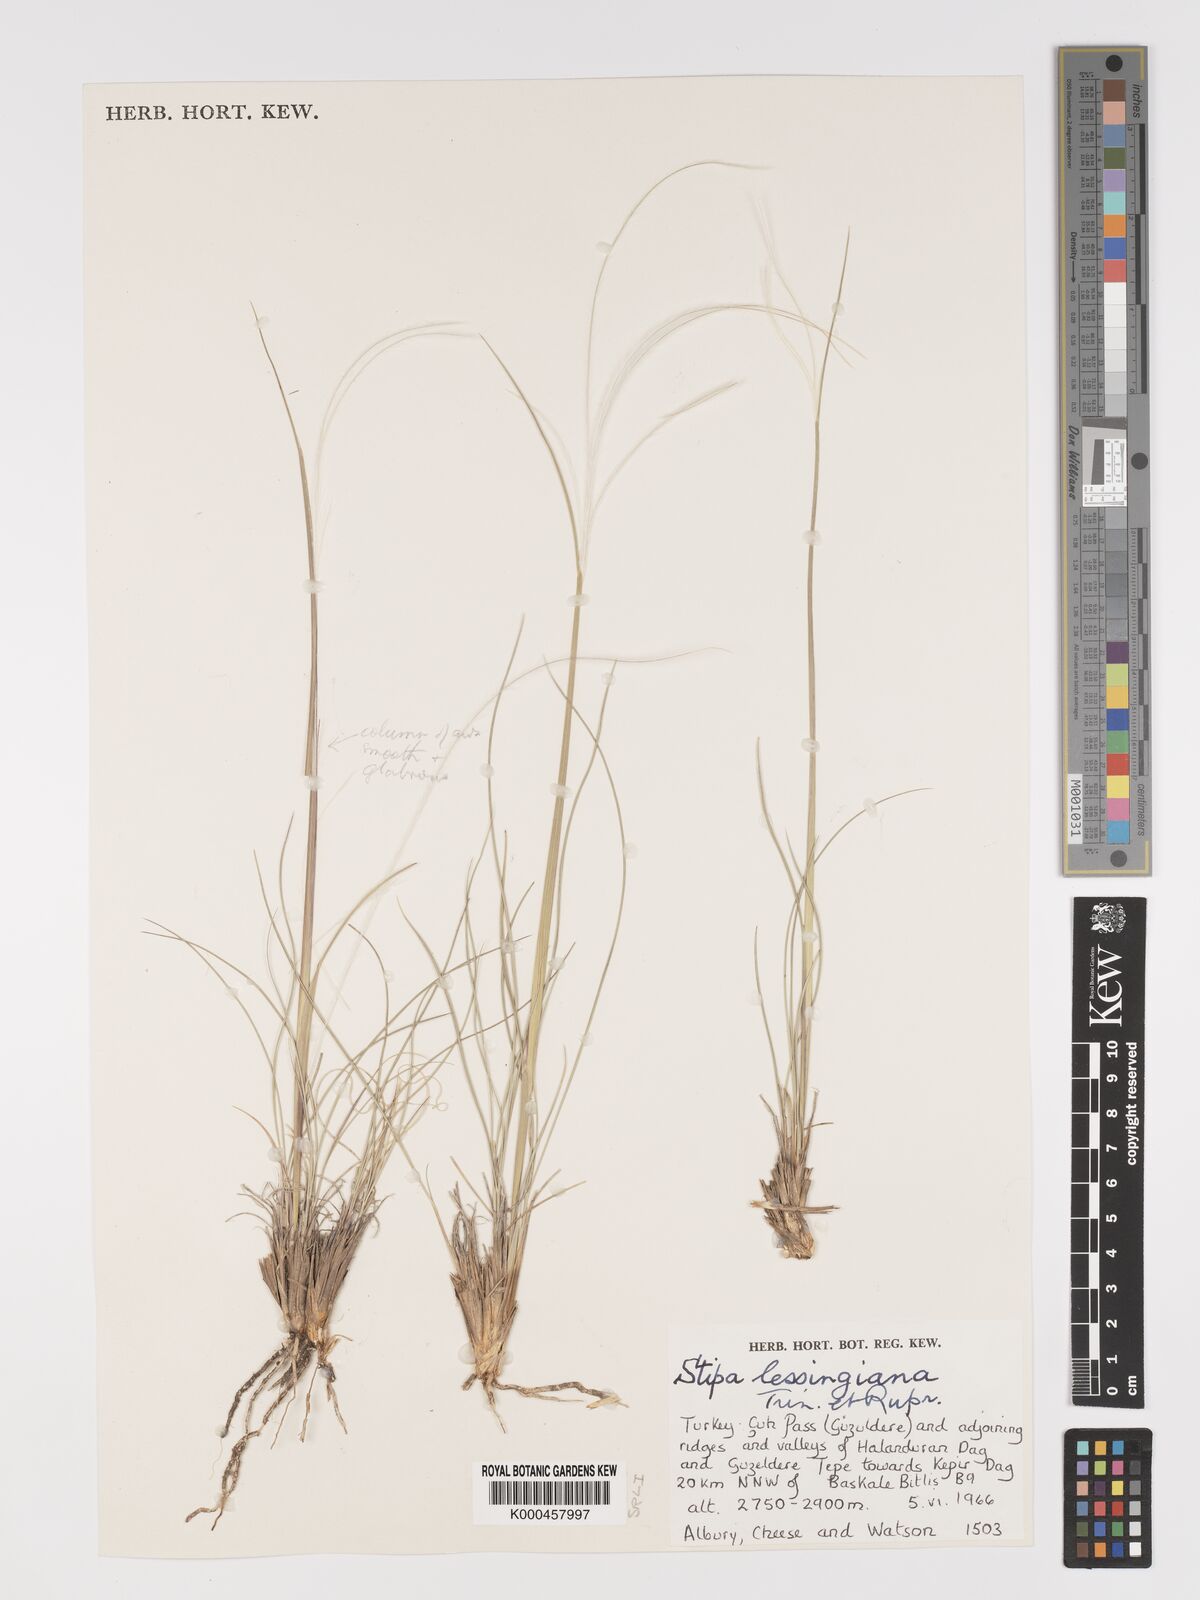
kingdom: Plantae
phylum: Tracheophyta
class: Liliopsida
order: Poales
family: Poaceae
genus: Stipa
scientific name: Stipa lessingiana
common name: Needle grass
